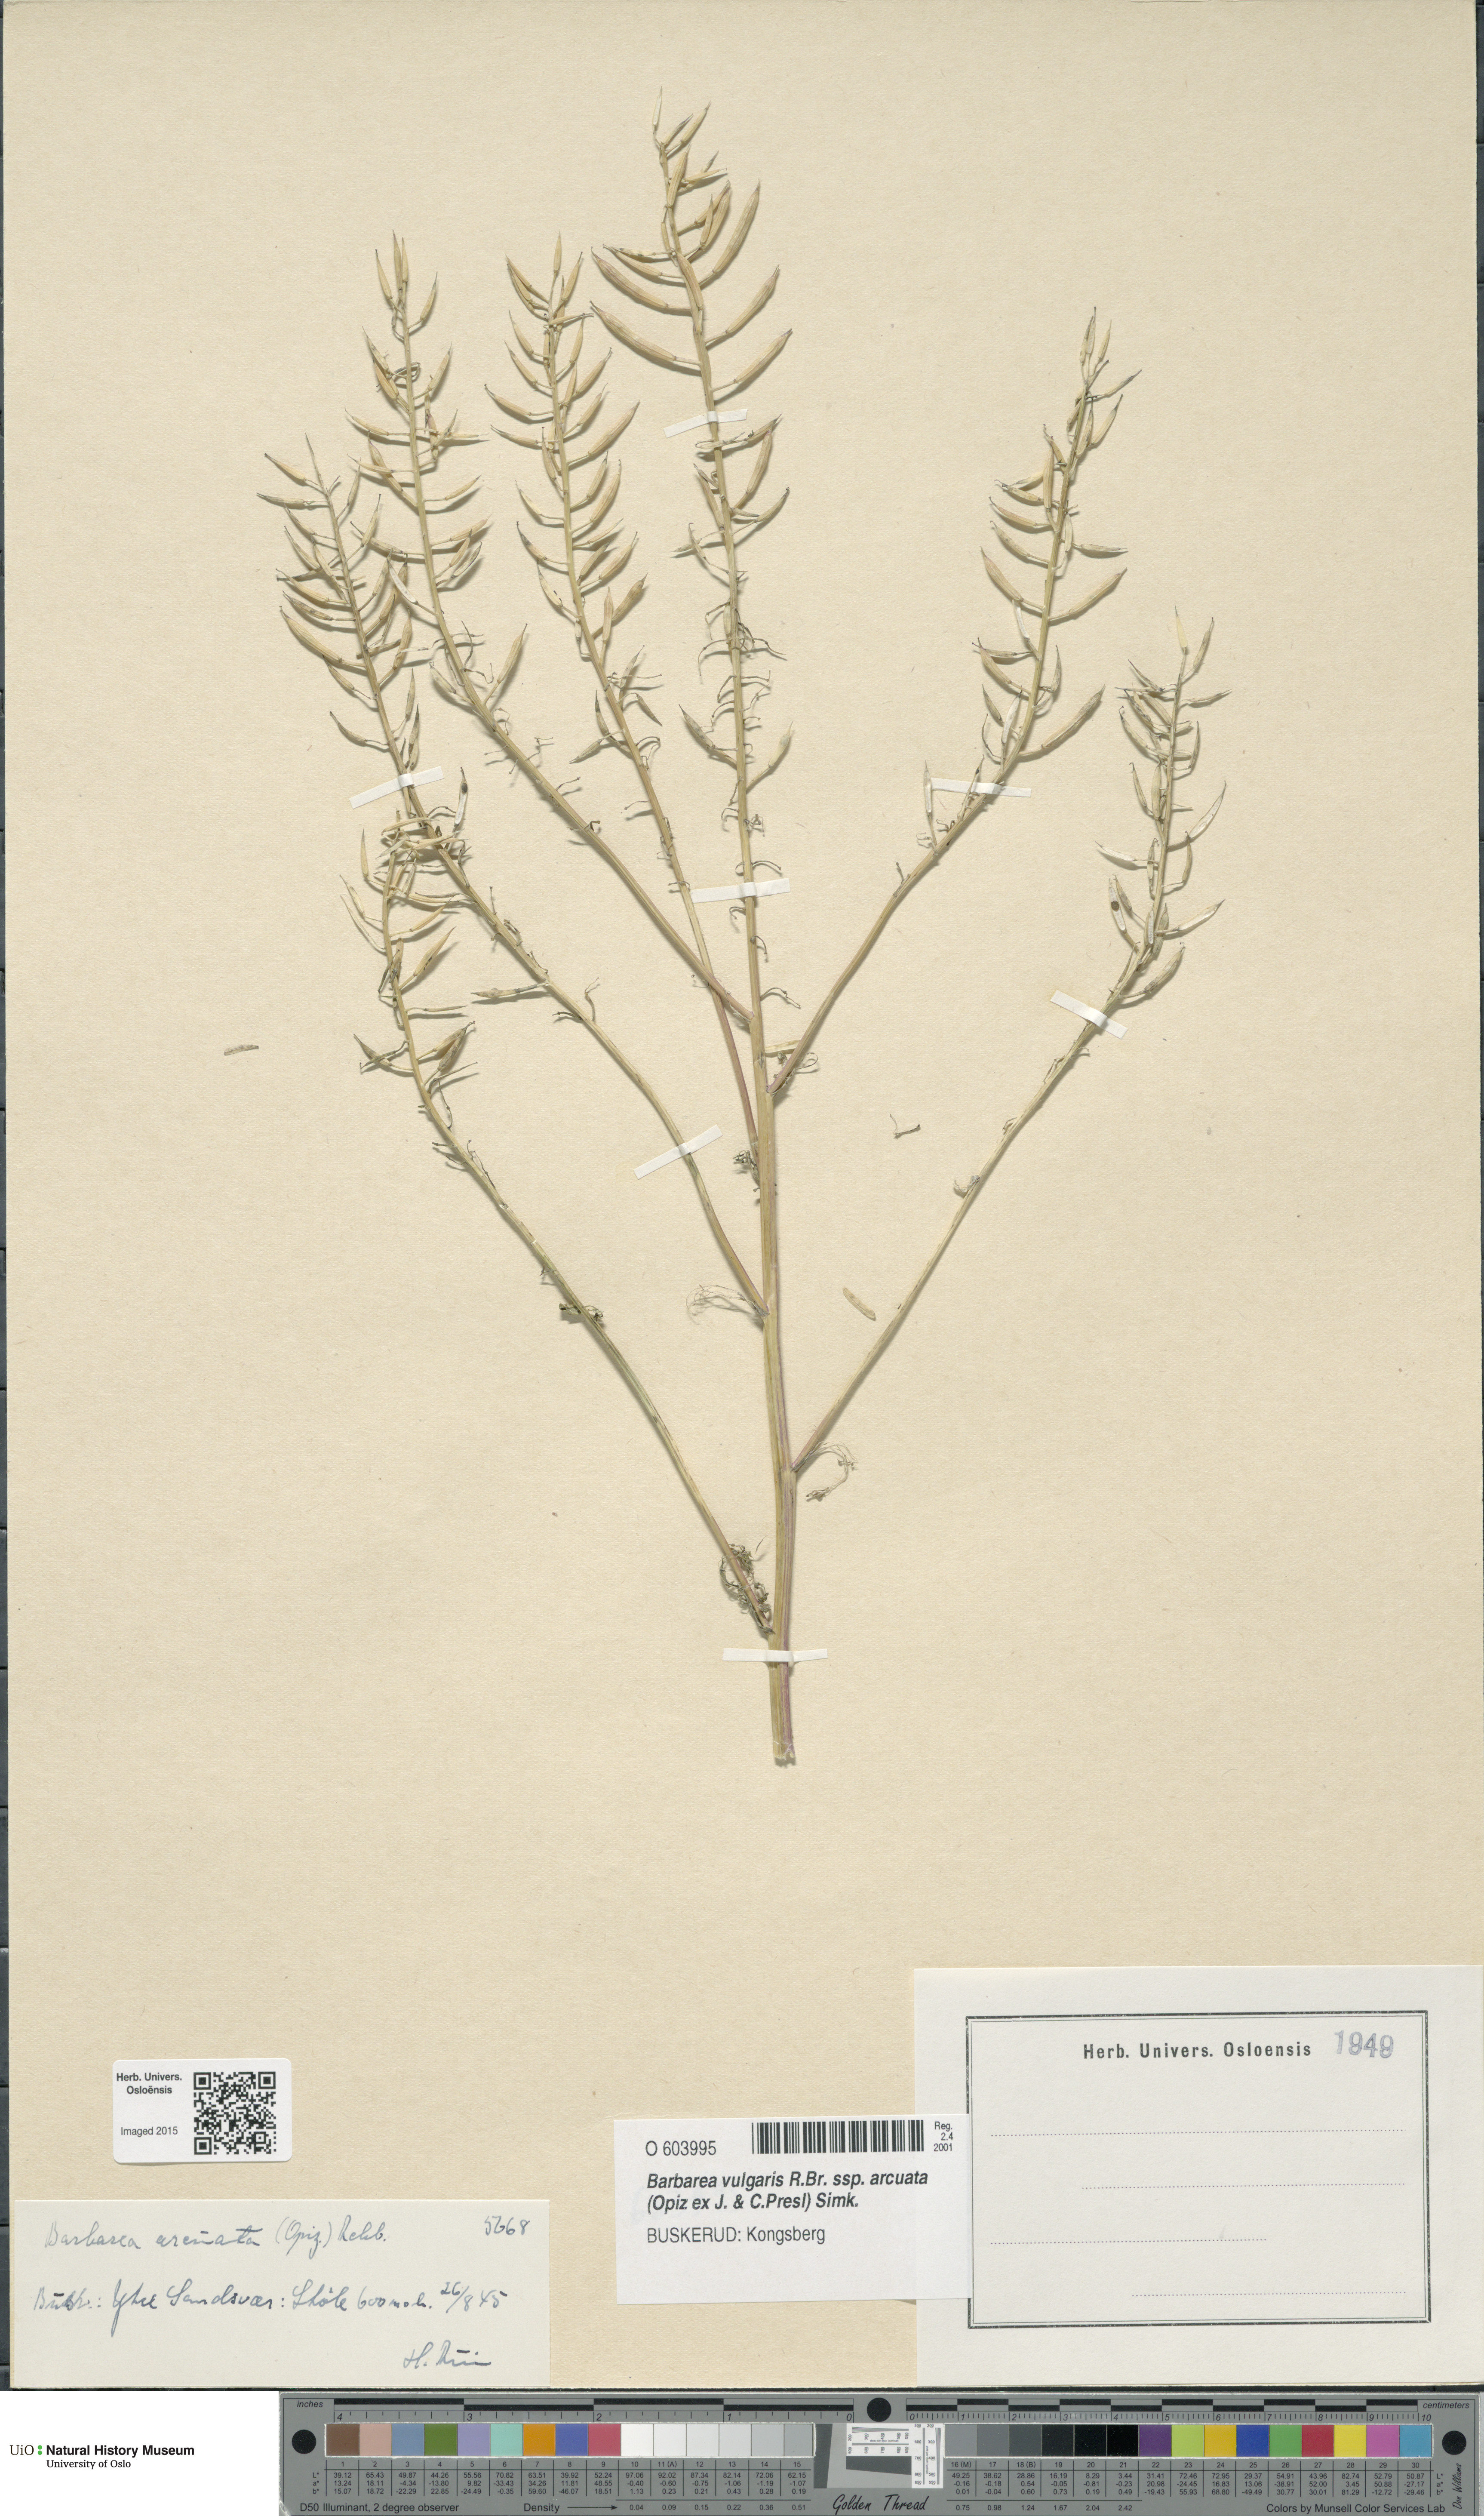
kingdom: Plantae
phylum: Tracheophyta
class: Magnoliopsida
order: Brassicales
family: Brassicaceae
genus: Barbarea
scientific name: Barbarea vulgaris
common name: Cressy-greens
